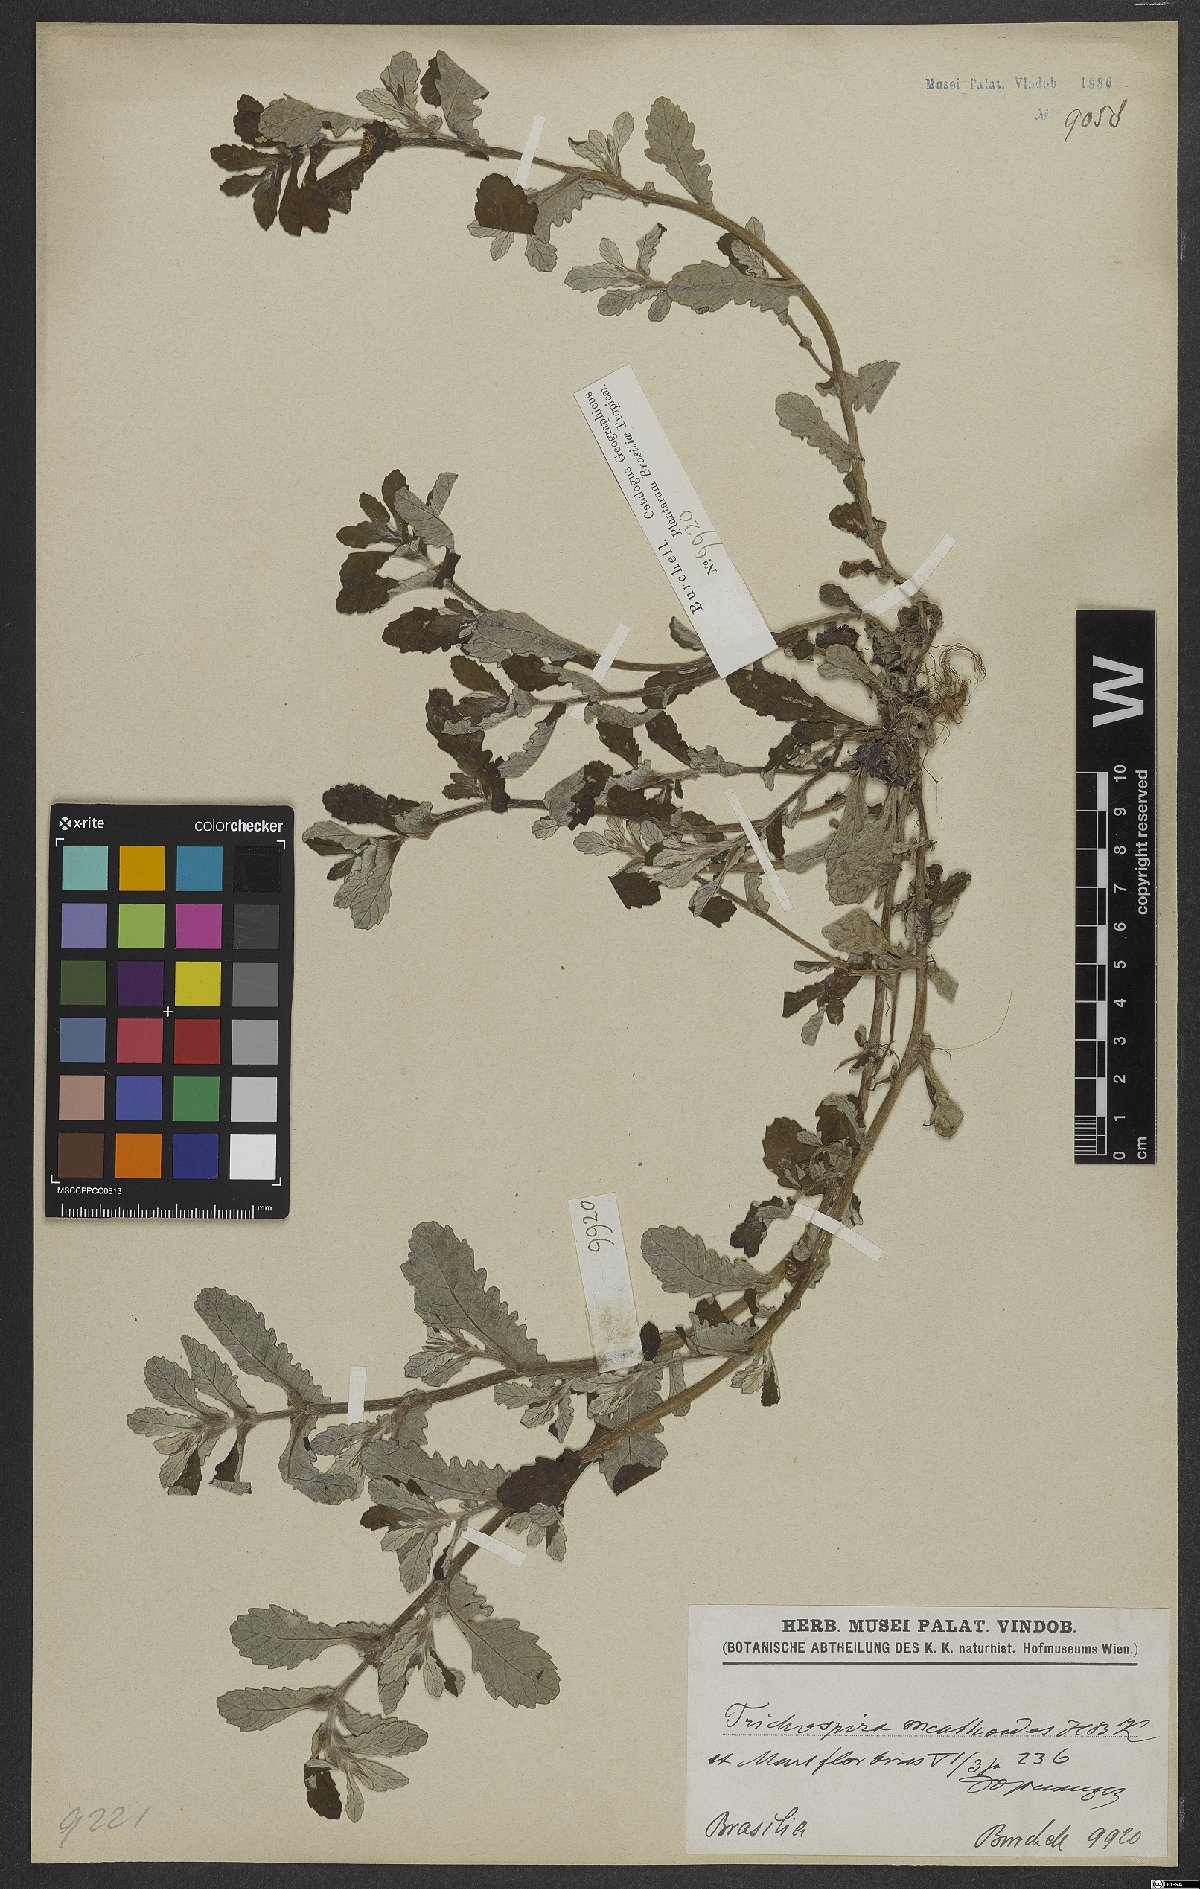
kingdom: Chromista
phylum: Ciliophora
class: Kinetofragminophora
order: Trichostomatida
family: Trichospiridae
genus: Trichospira
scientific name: Trichospira verticillata
